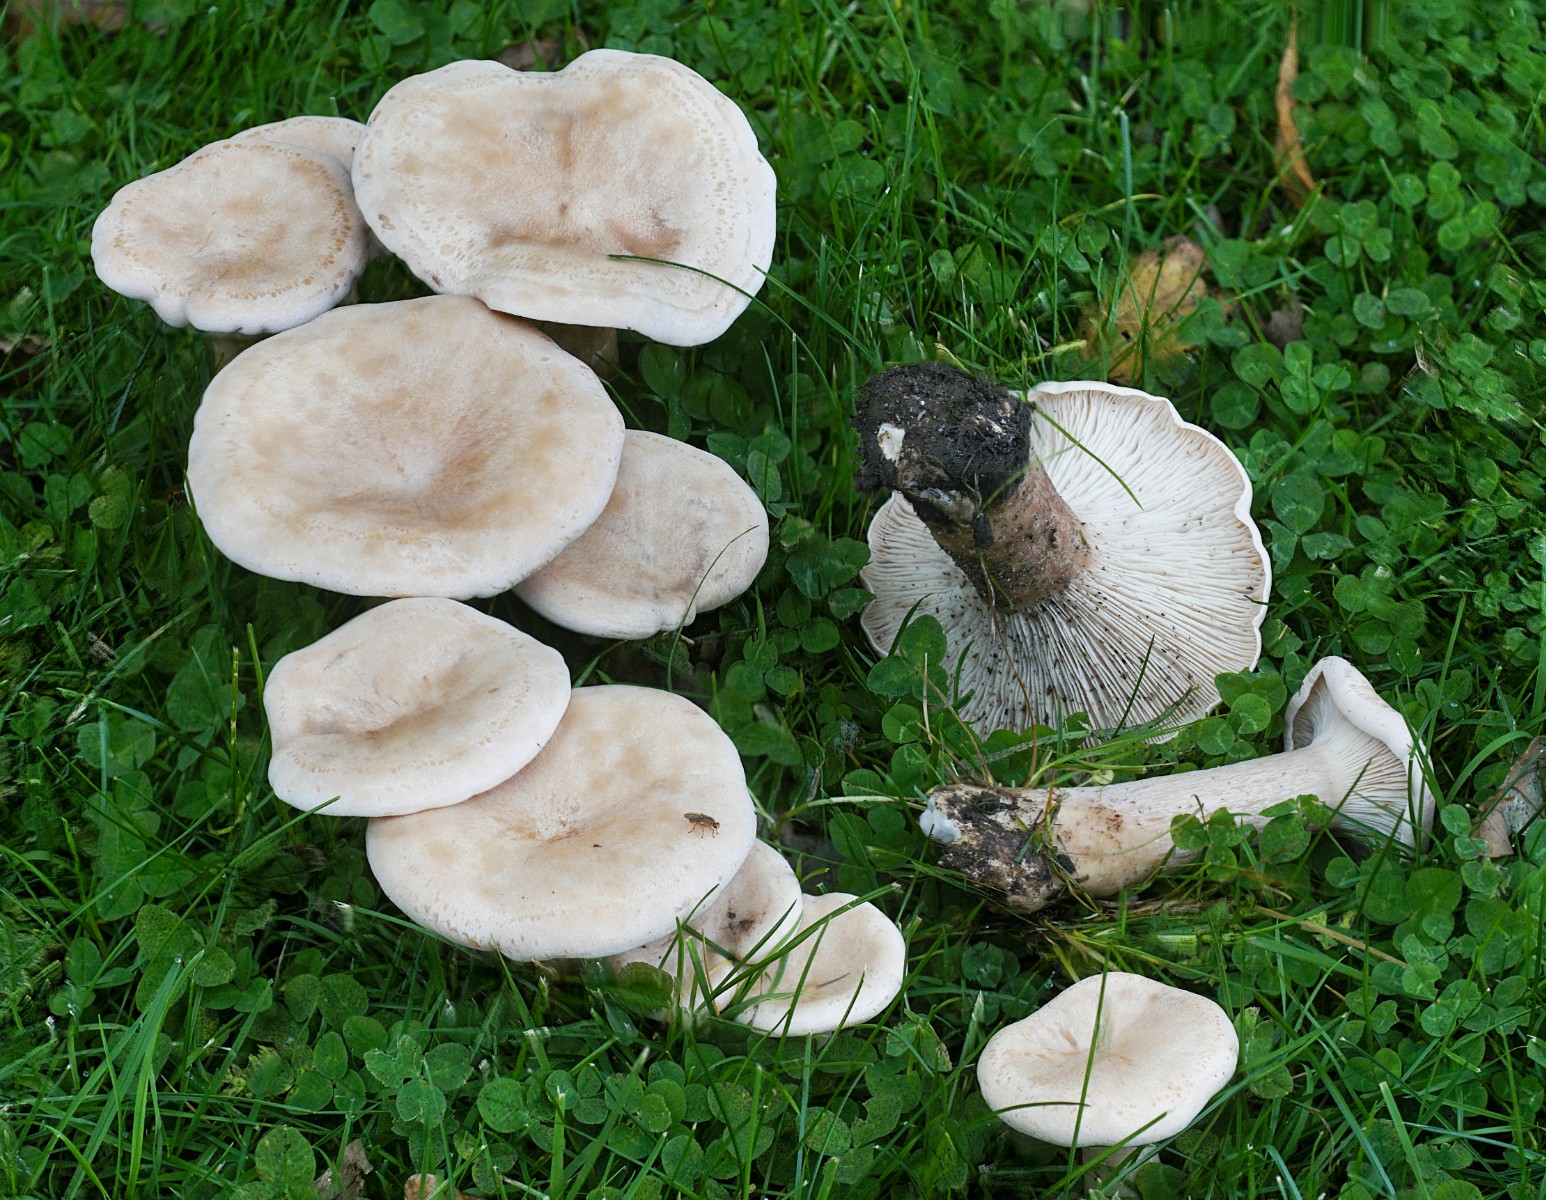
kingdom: Fungi
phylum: Basidiomycota
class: Agaricomycetes
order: Agaricales
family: Tricholomataceae
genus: Infundibulicybe
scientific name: Infundibulicybe geotropa
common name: stor tragthat
